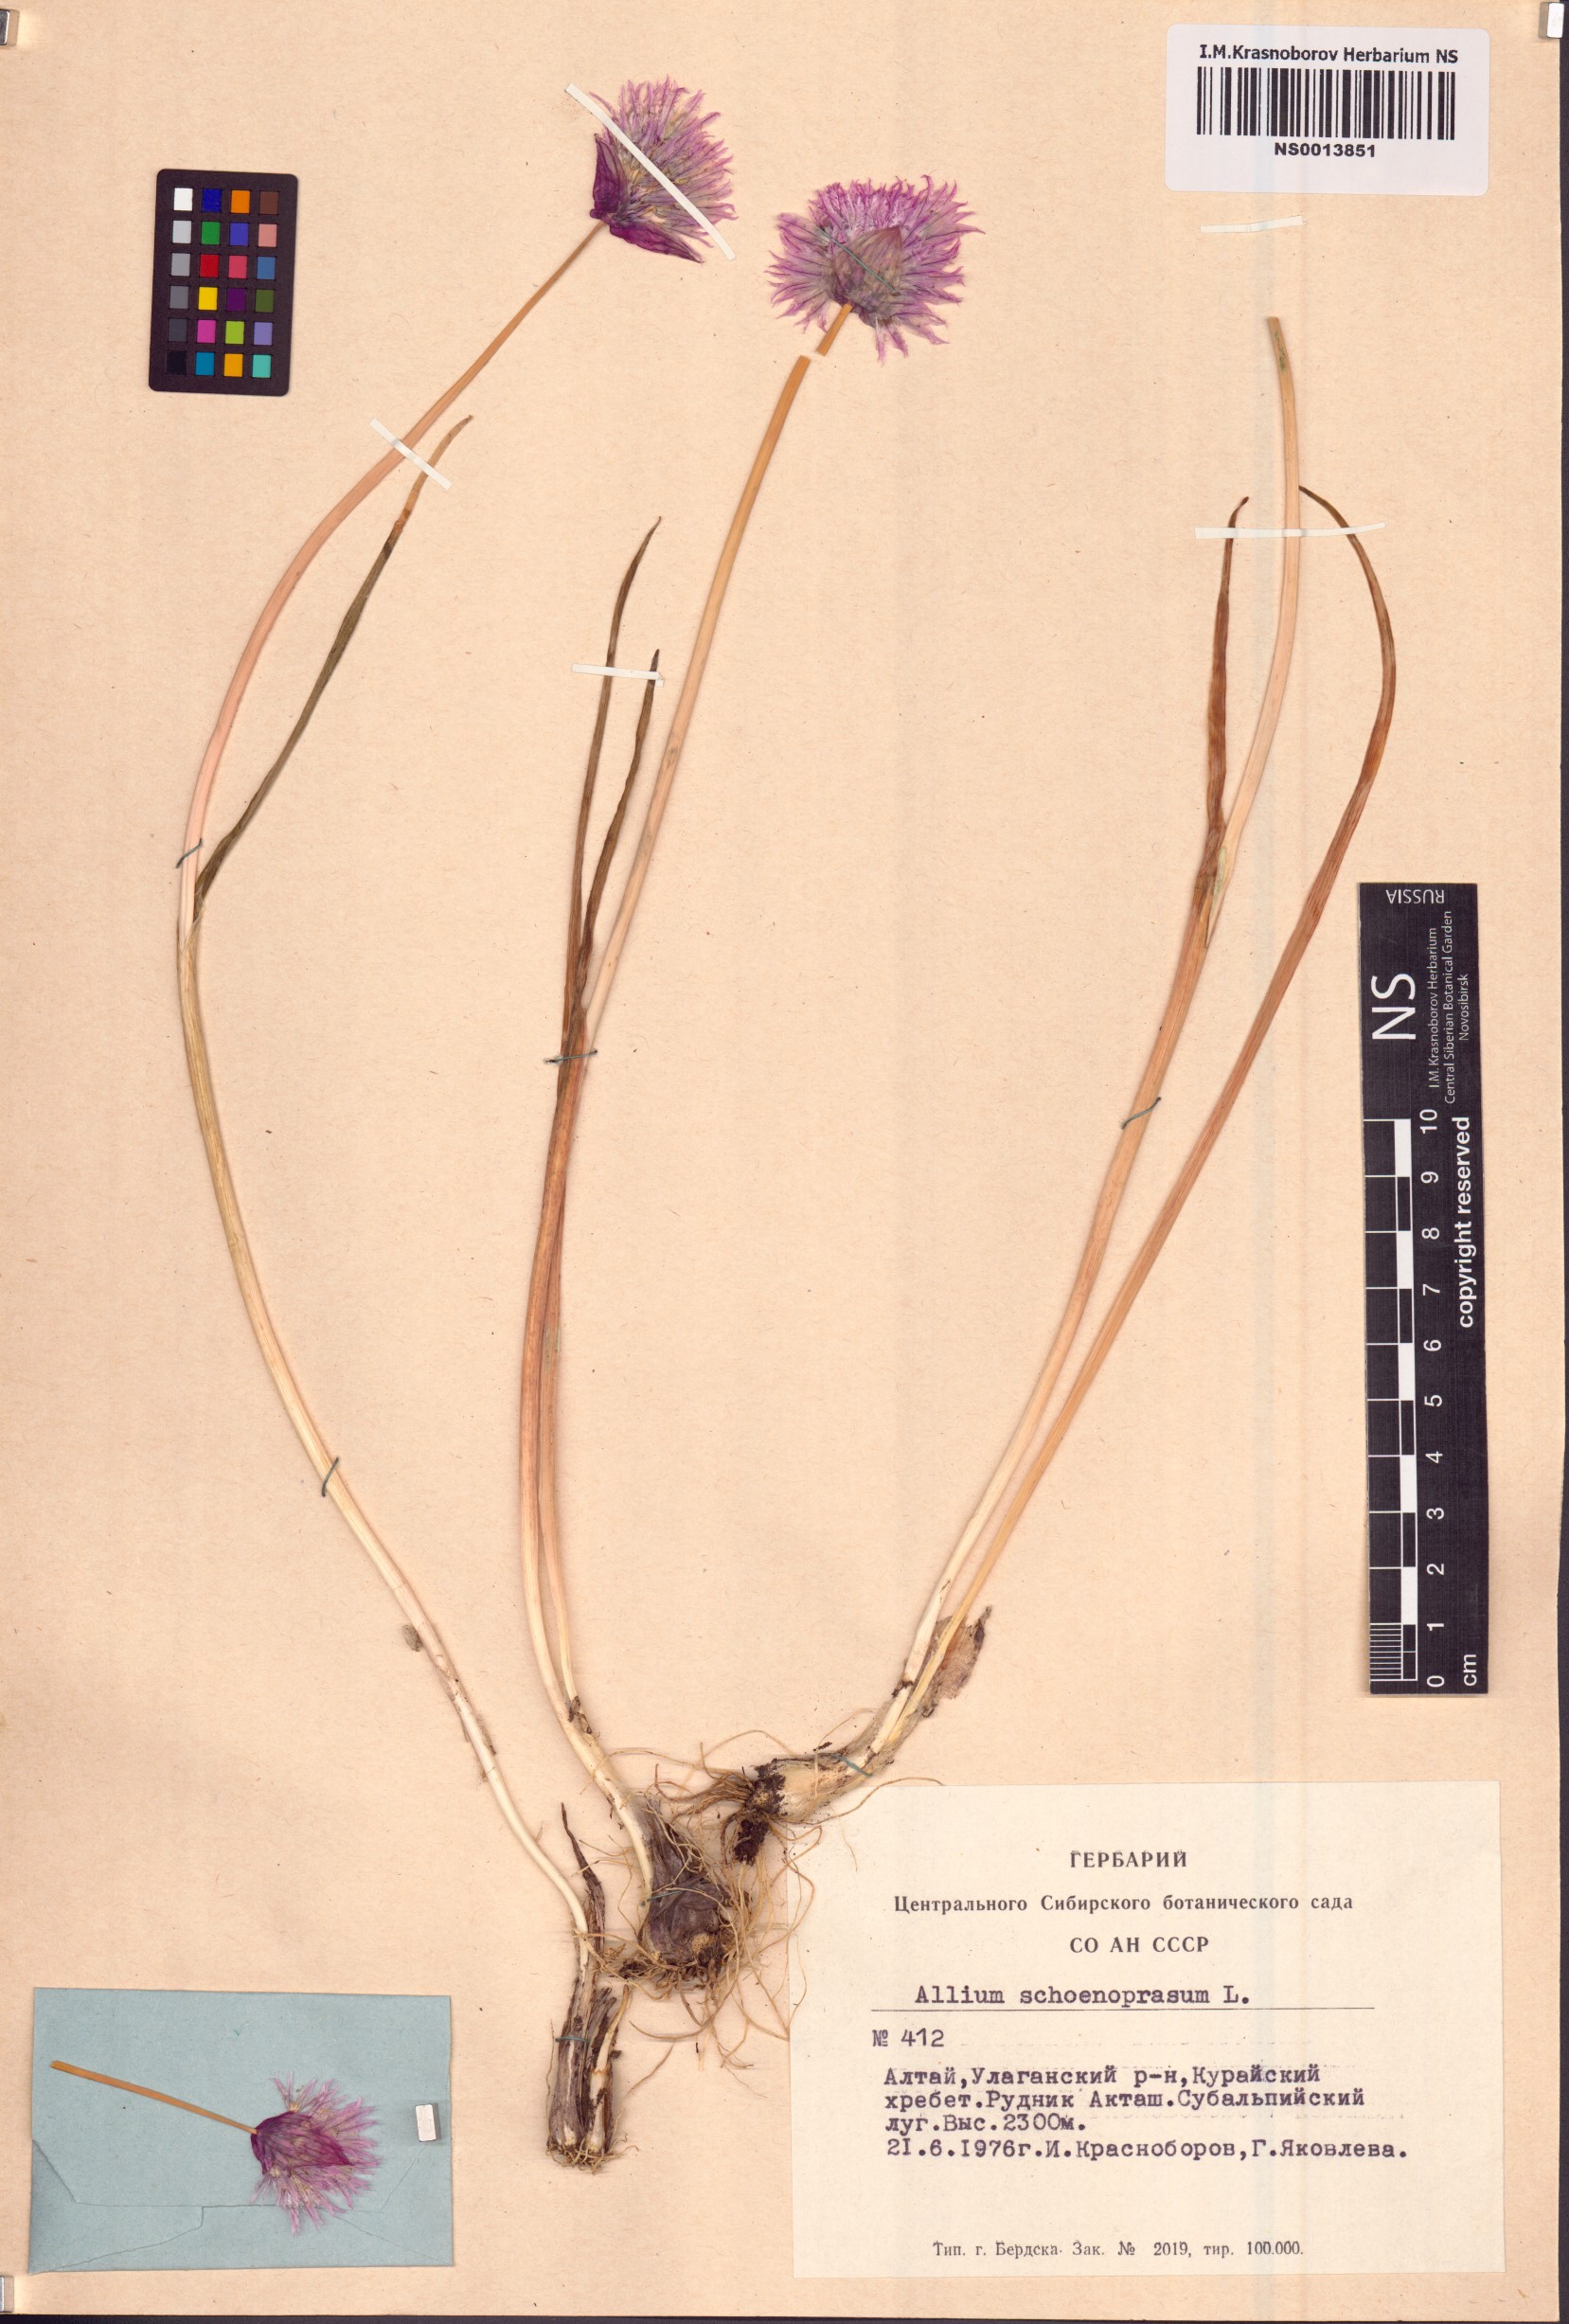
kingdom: Plantae
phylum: Tracheophyta
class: Liliopsida
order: Asparagales
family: Amaryllidaceae
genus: Allium
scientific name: Allium schoenoprasum
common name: Chives
